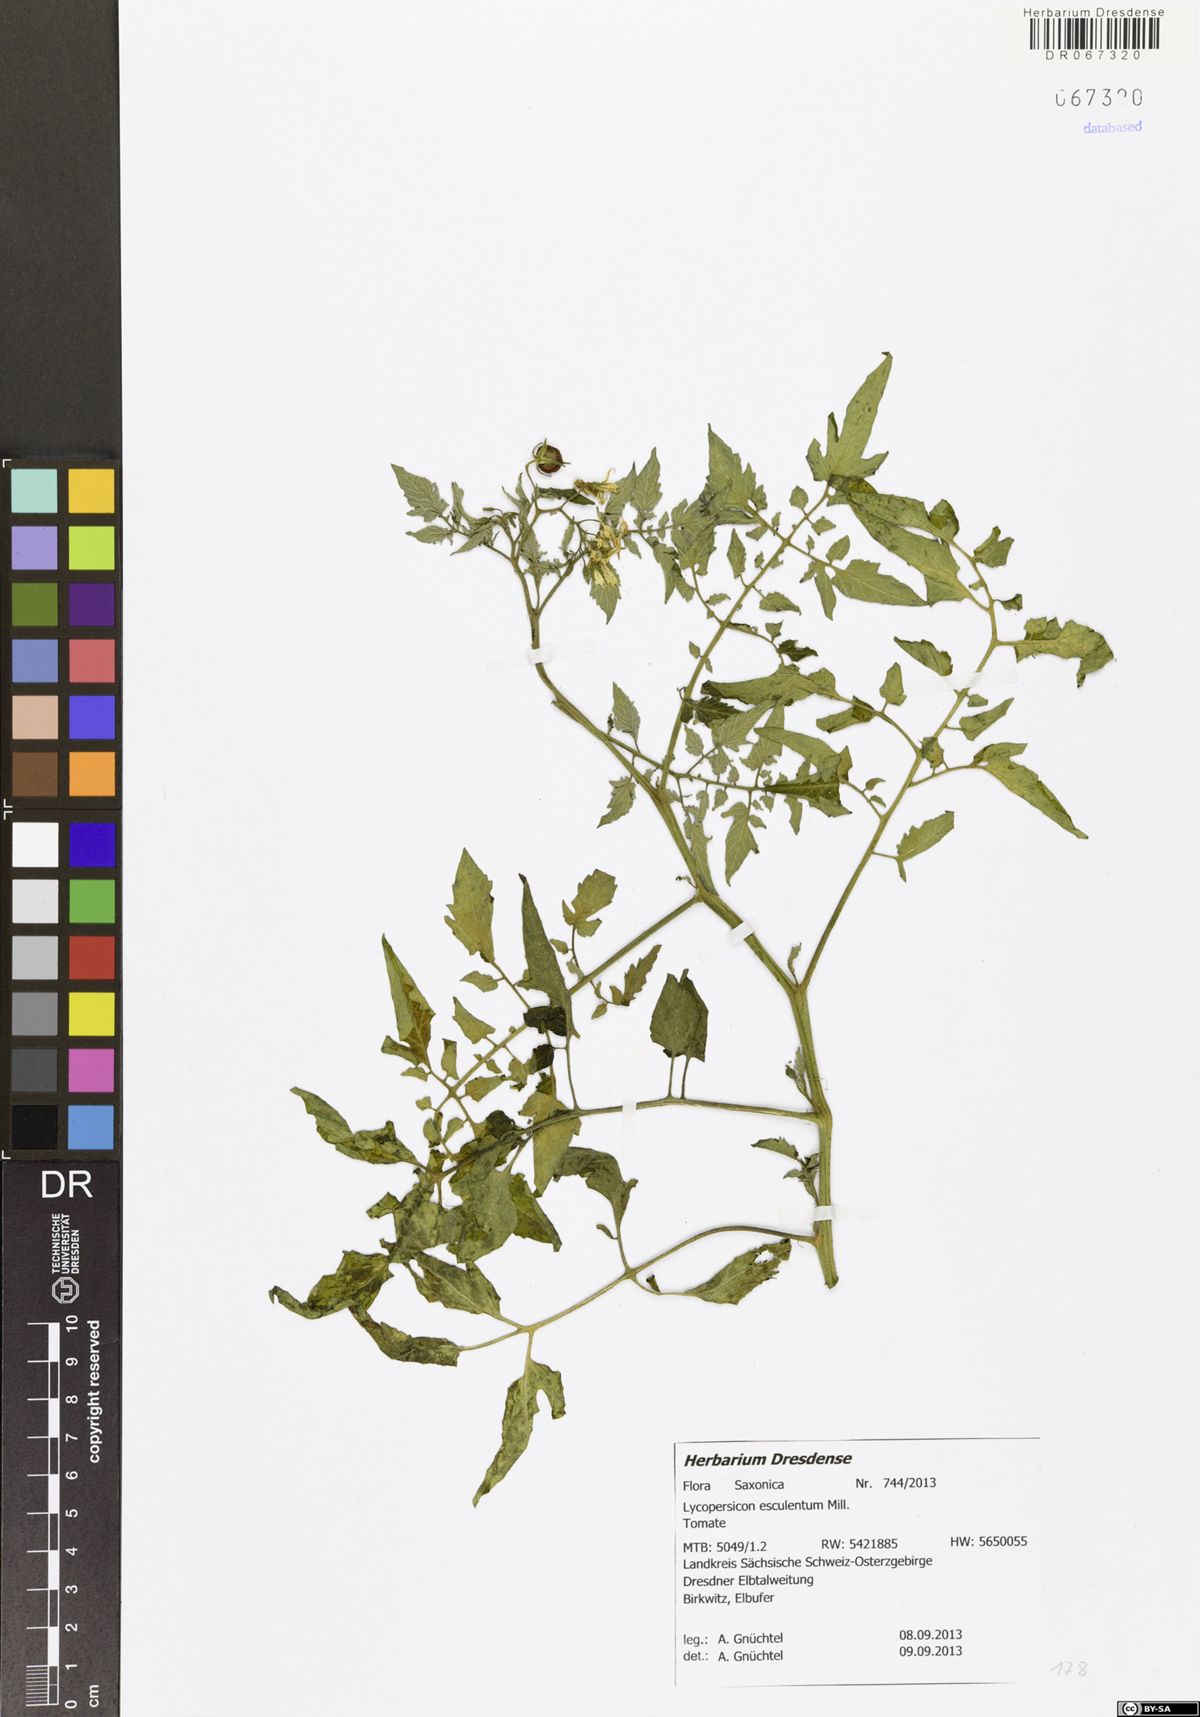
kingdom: Plantae
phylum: Tracheophyta
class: Magnoliopsida
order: Solanales
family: Solanaceae
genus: Solanum
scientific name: Solanum
